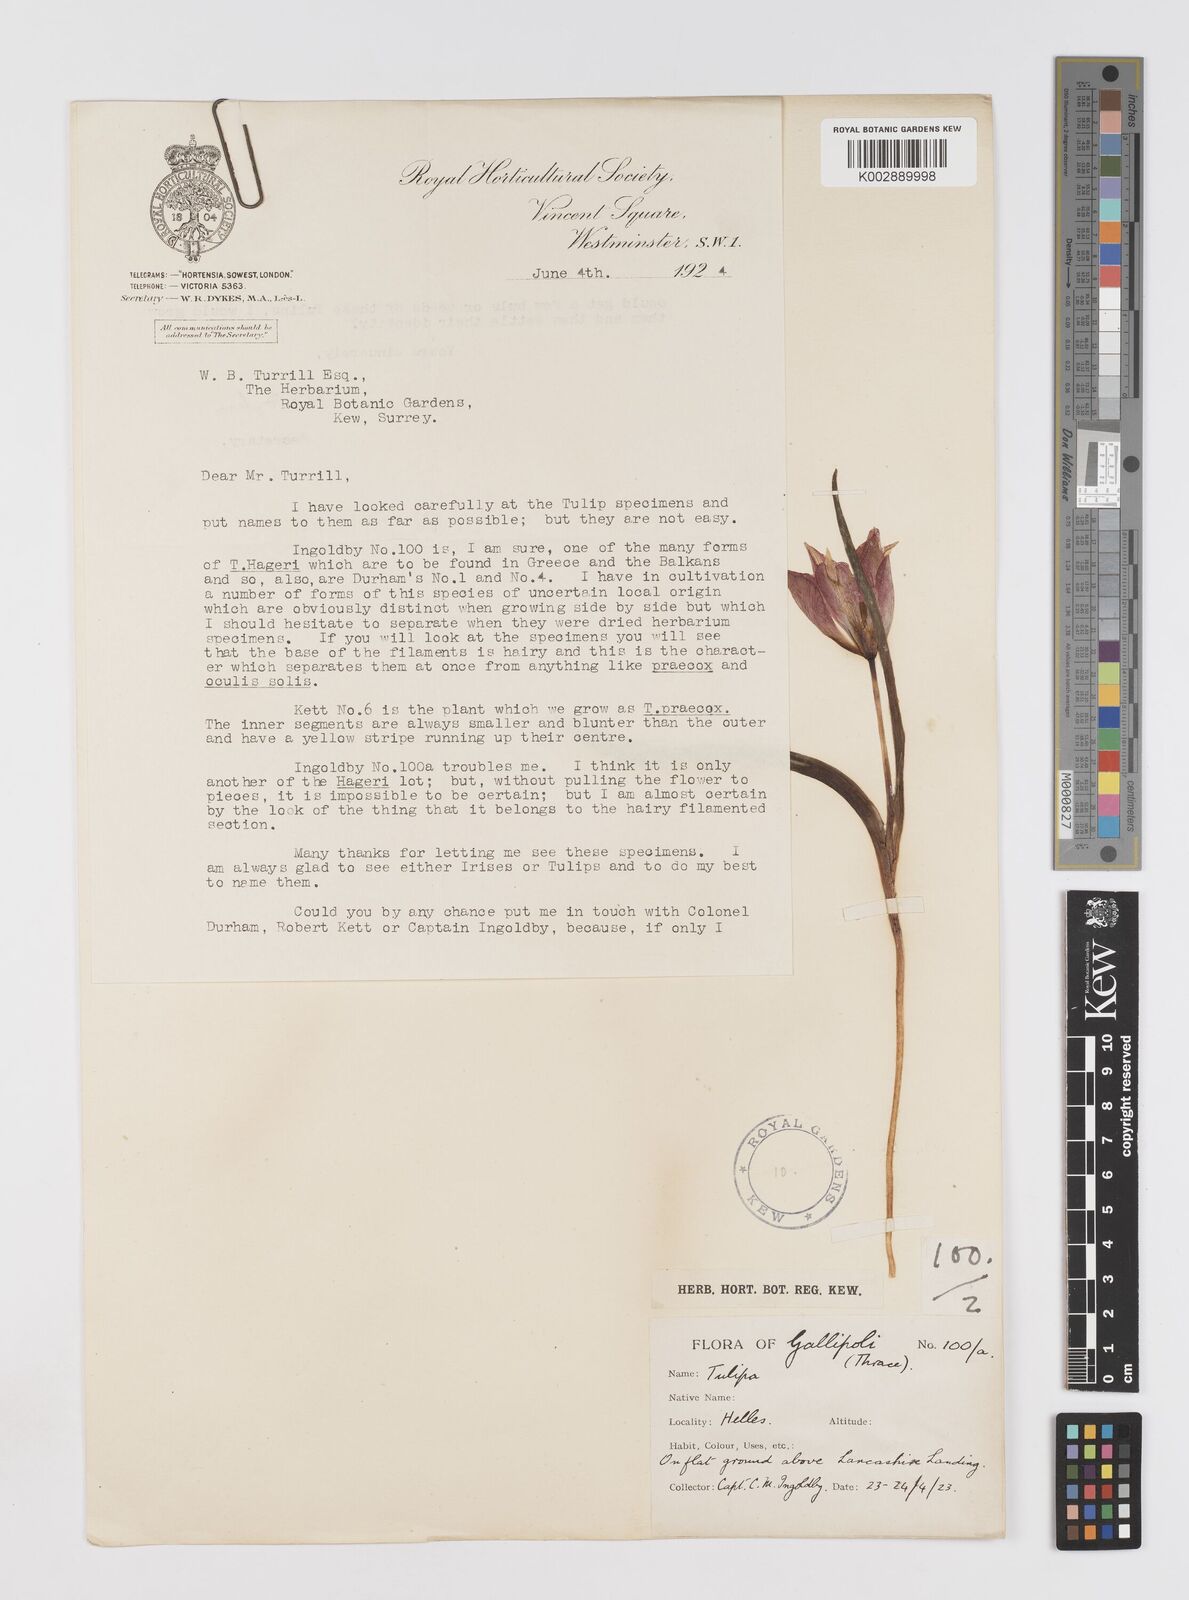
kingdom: Plantae
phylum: Tracheophyta
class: Liliopsida
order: Liliales
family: Liliaceae
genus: Tulipa
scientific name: Tulipa orphanidea
